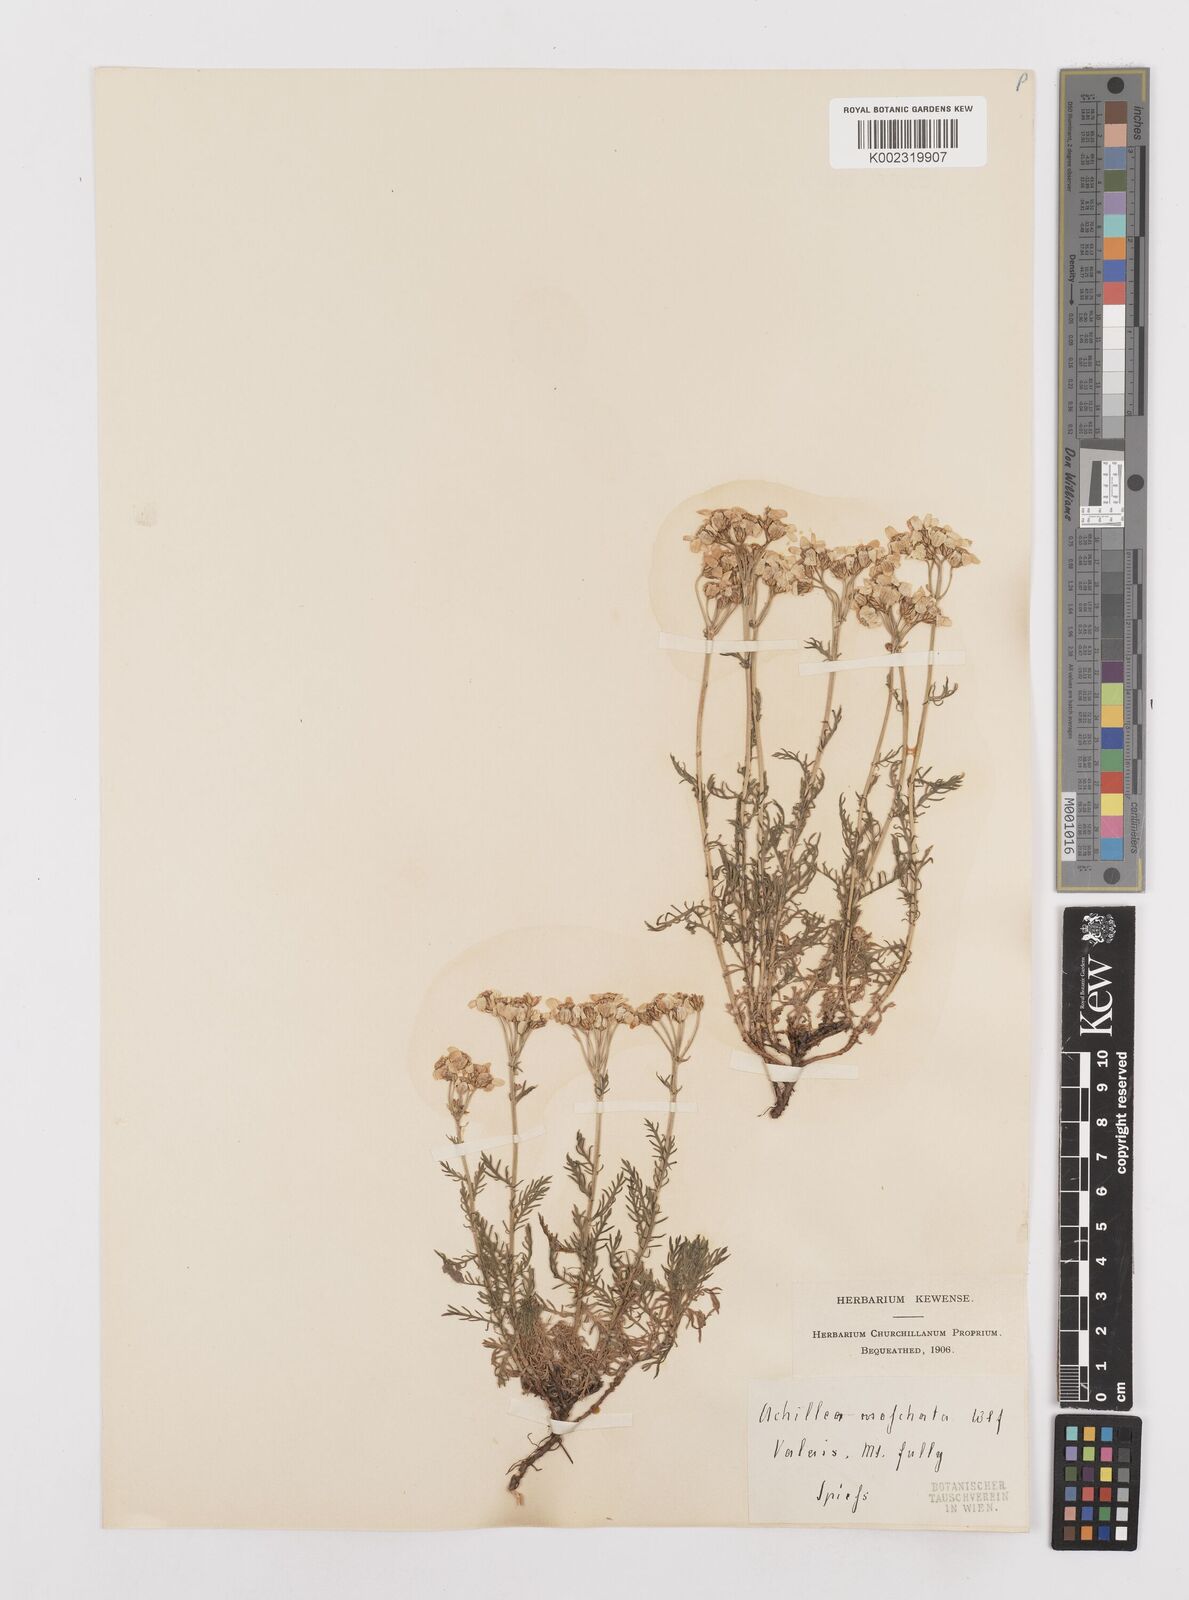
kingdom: Plantae
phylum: Tracheophyta
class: Magnoliopsida
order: Asterales
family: Asteraceae
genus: Achillea
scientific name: Achillea erba-rotta
